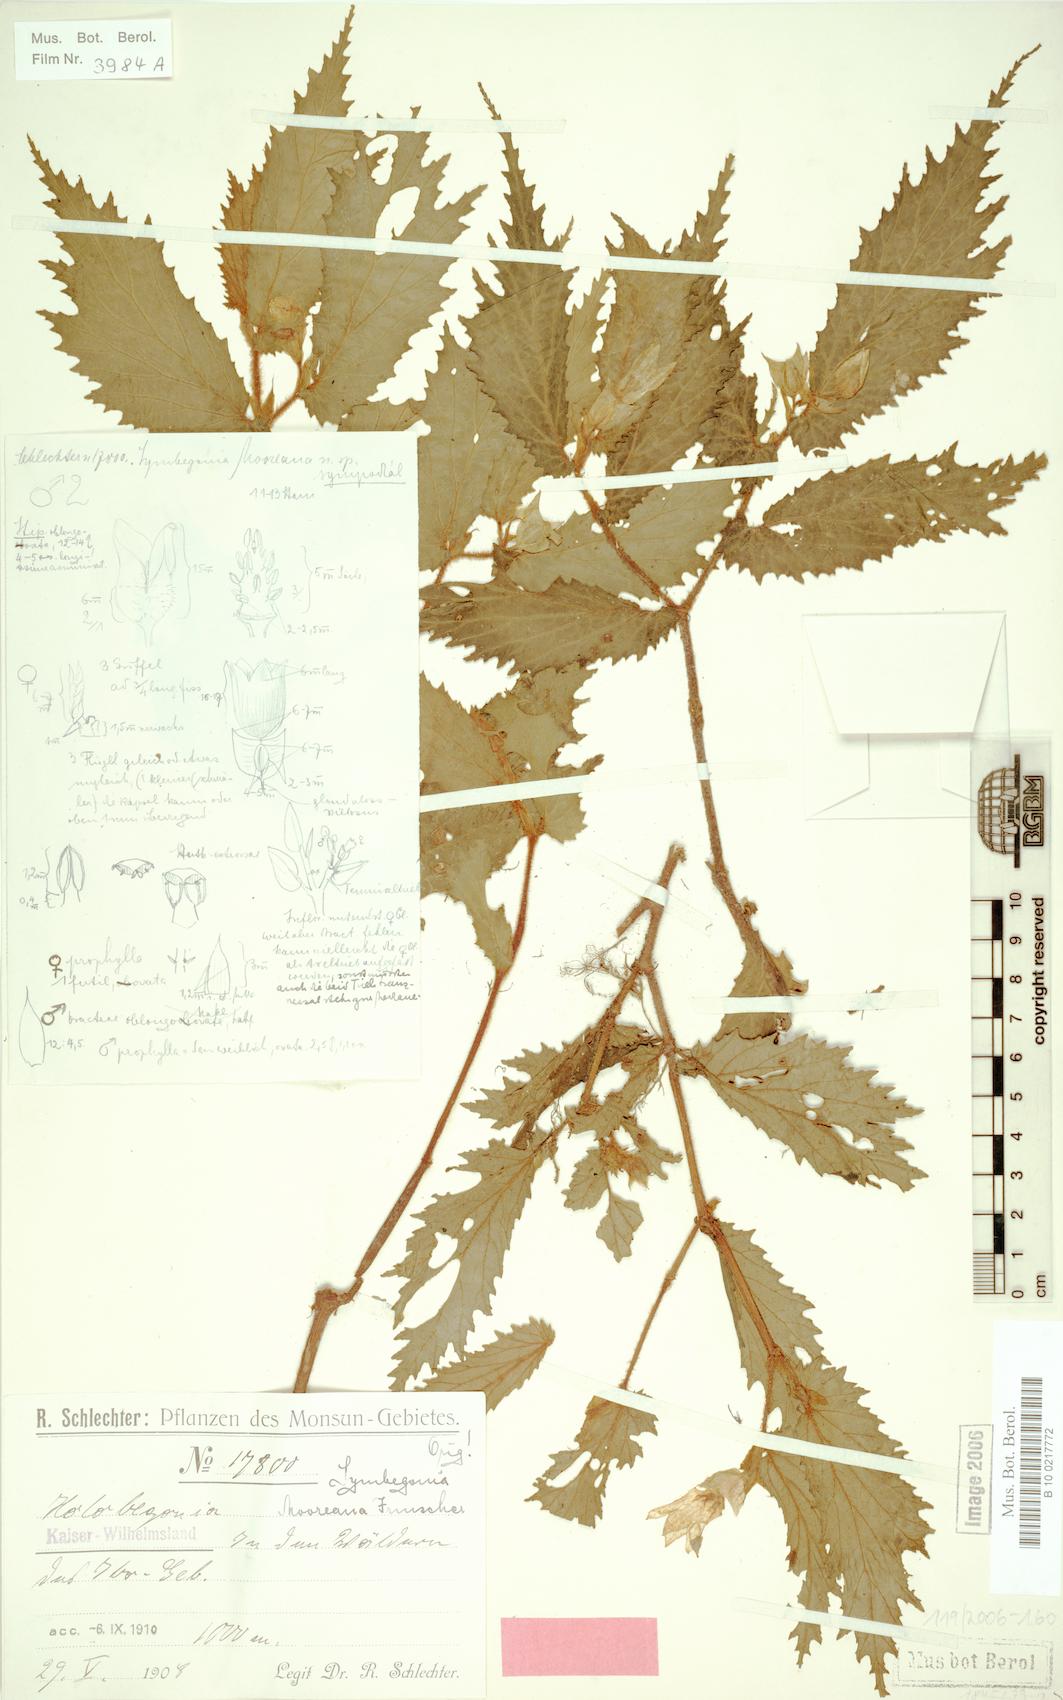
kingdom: Plantae
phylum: Tracheophyta
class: Magnoliopsida
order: Cucurbitales
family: Begoniaceae
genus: Begonia
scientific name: Begonia mooreana
